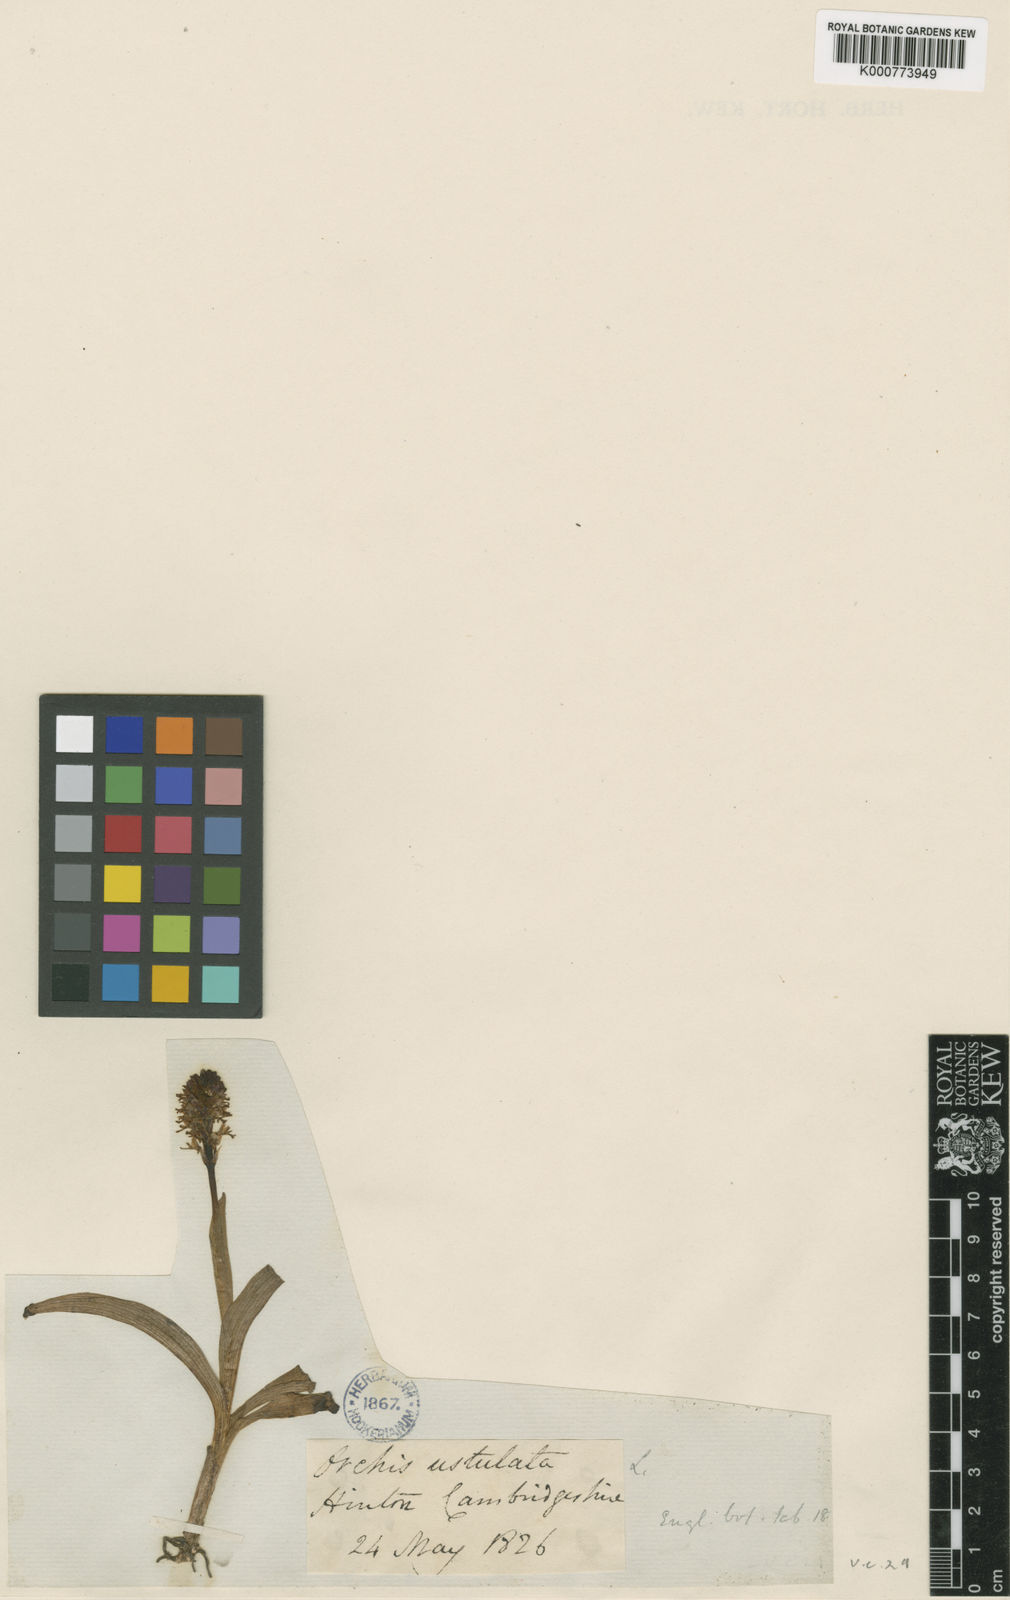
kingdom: Plantae
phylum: Tracheophyta
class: Liliopsida
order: Asparagales
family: Orchidaceae
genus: Neotinea
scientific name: Neotinea ustulata
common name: Burnt orchid
